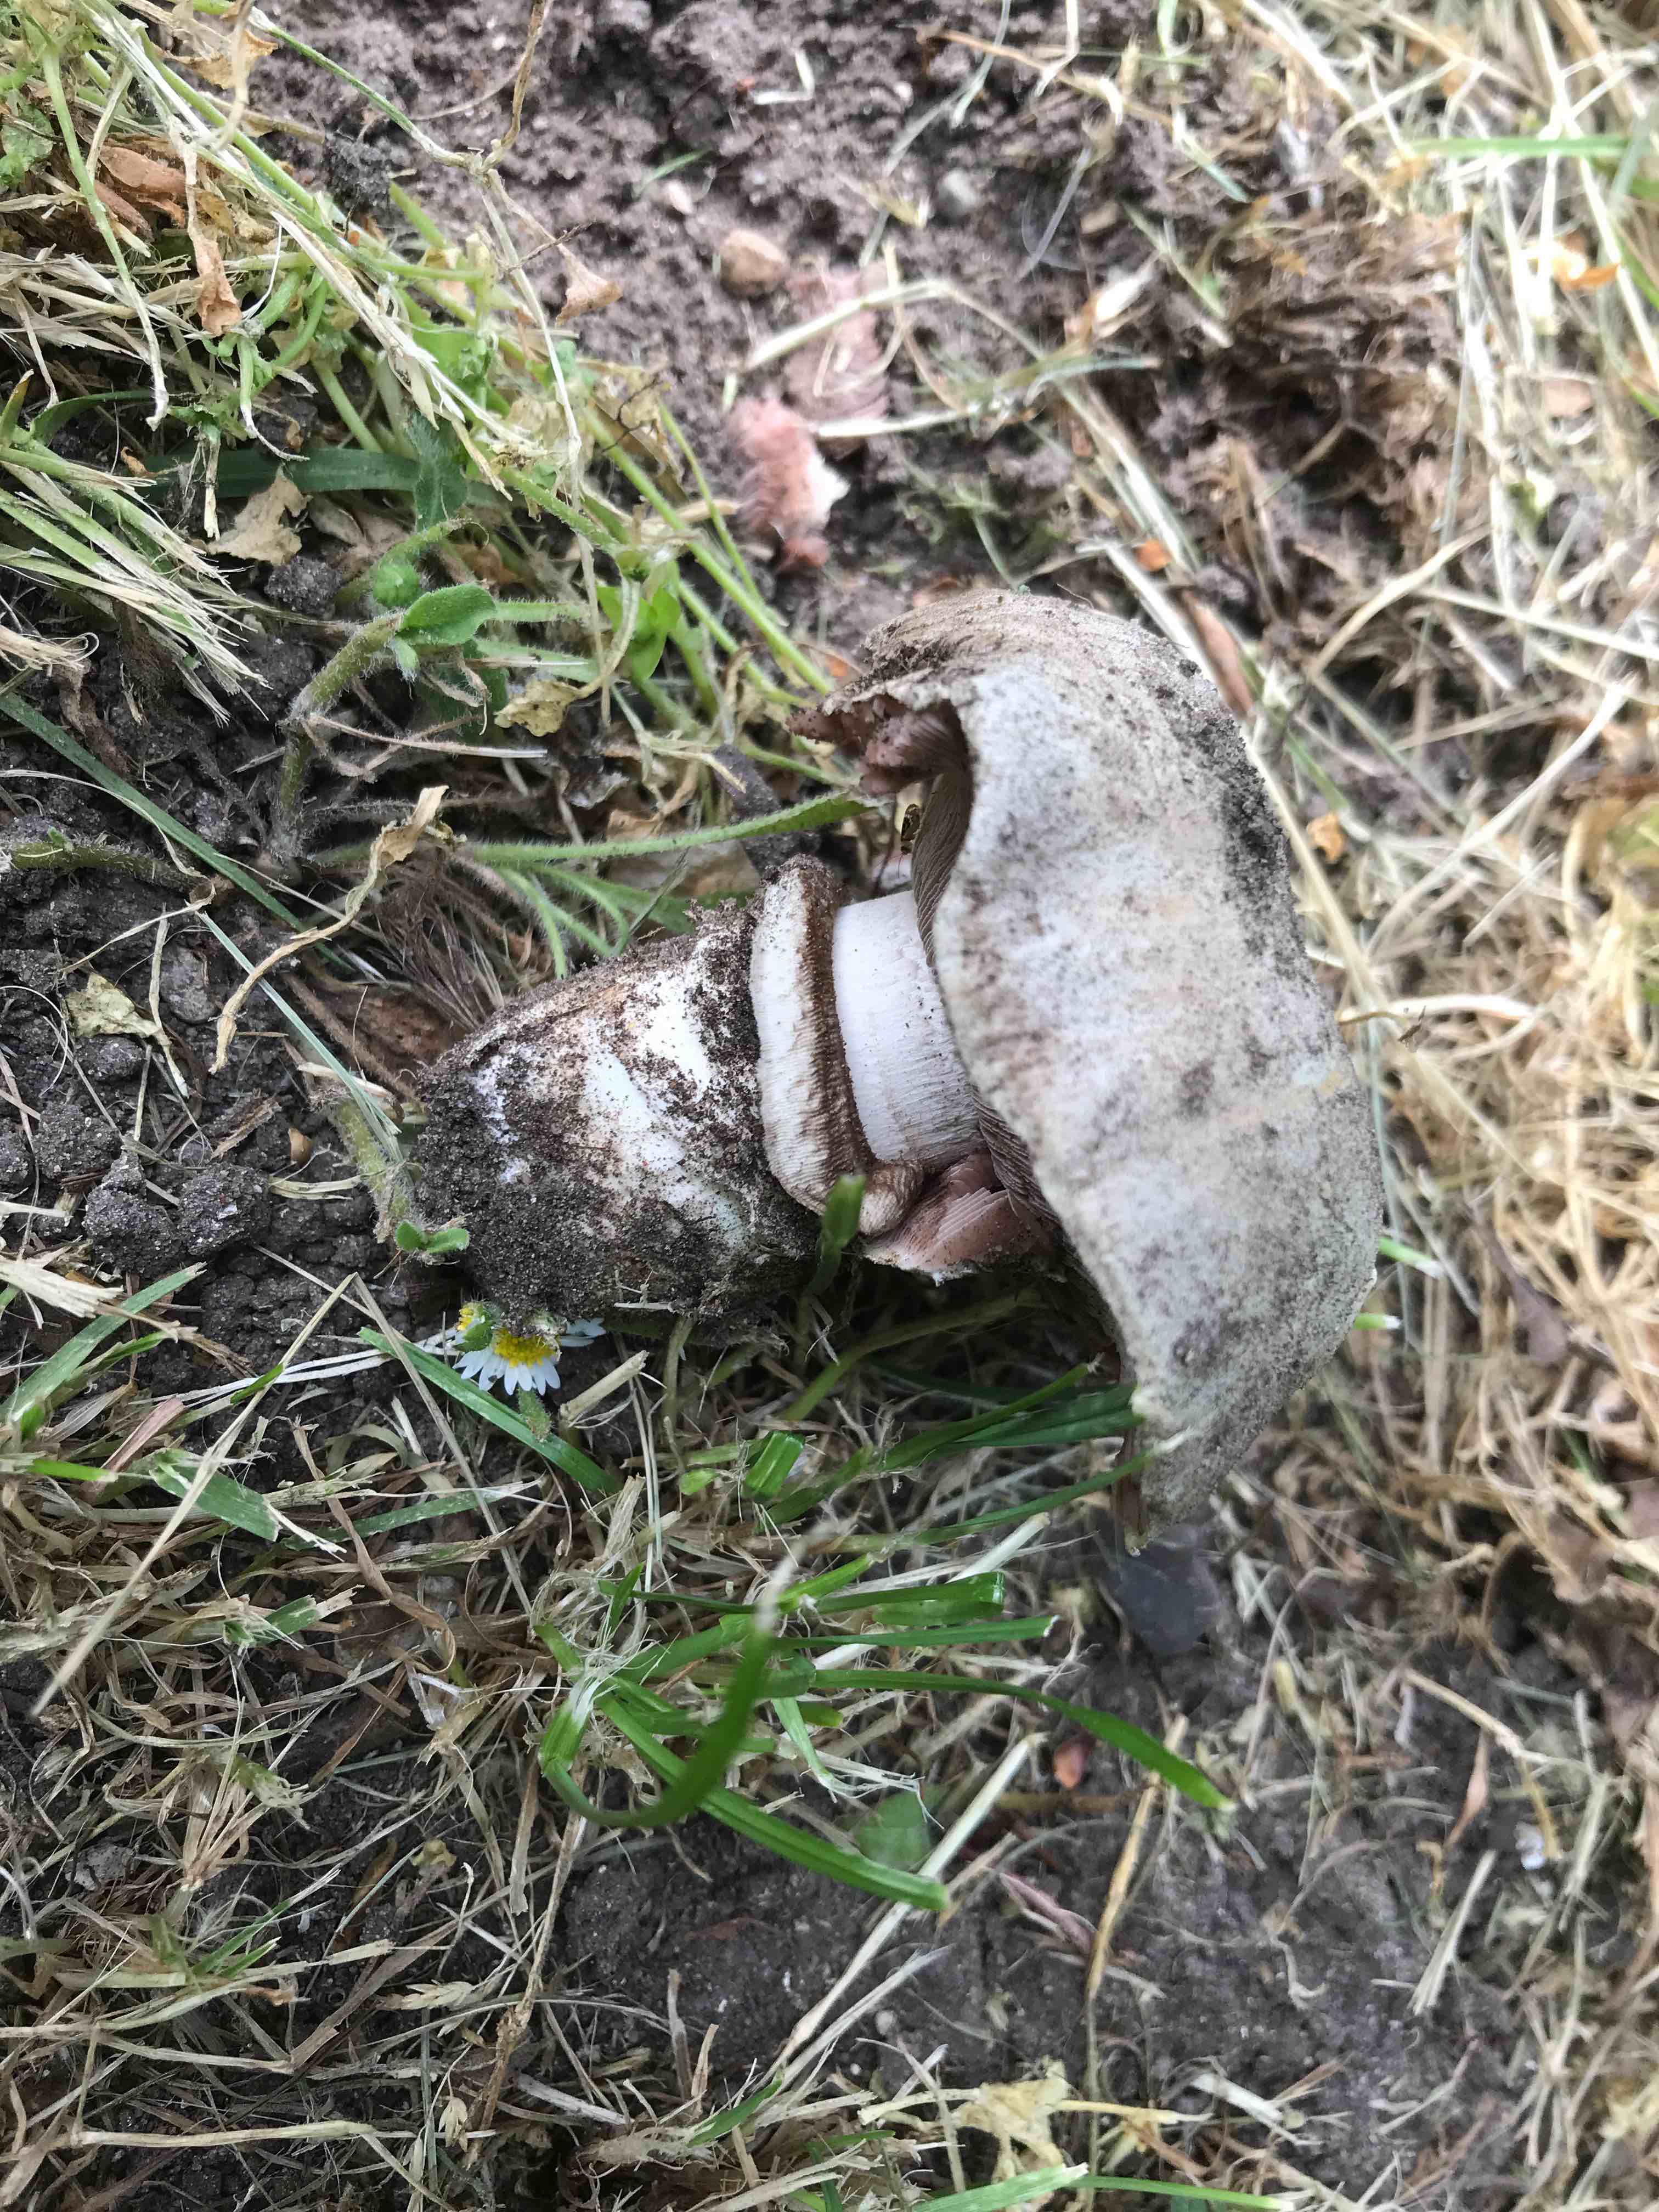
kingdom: Fungi
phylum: Basidiomycota
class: Agaricomycetes
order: Agaricales
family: Agaricaceae
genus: Agaricus
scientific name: Agaricus bitorquis
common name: vej-champignon
